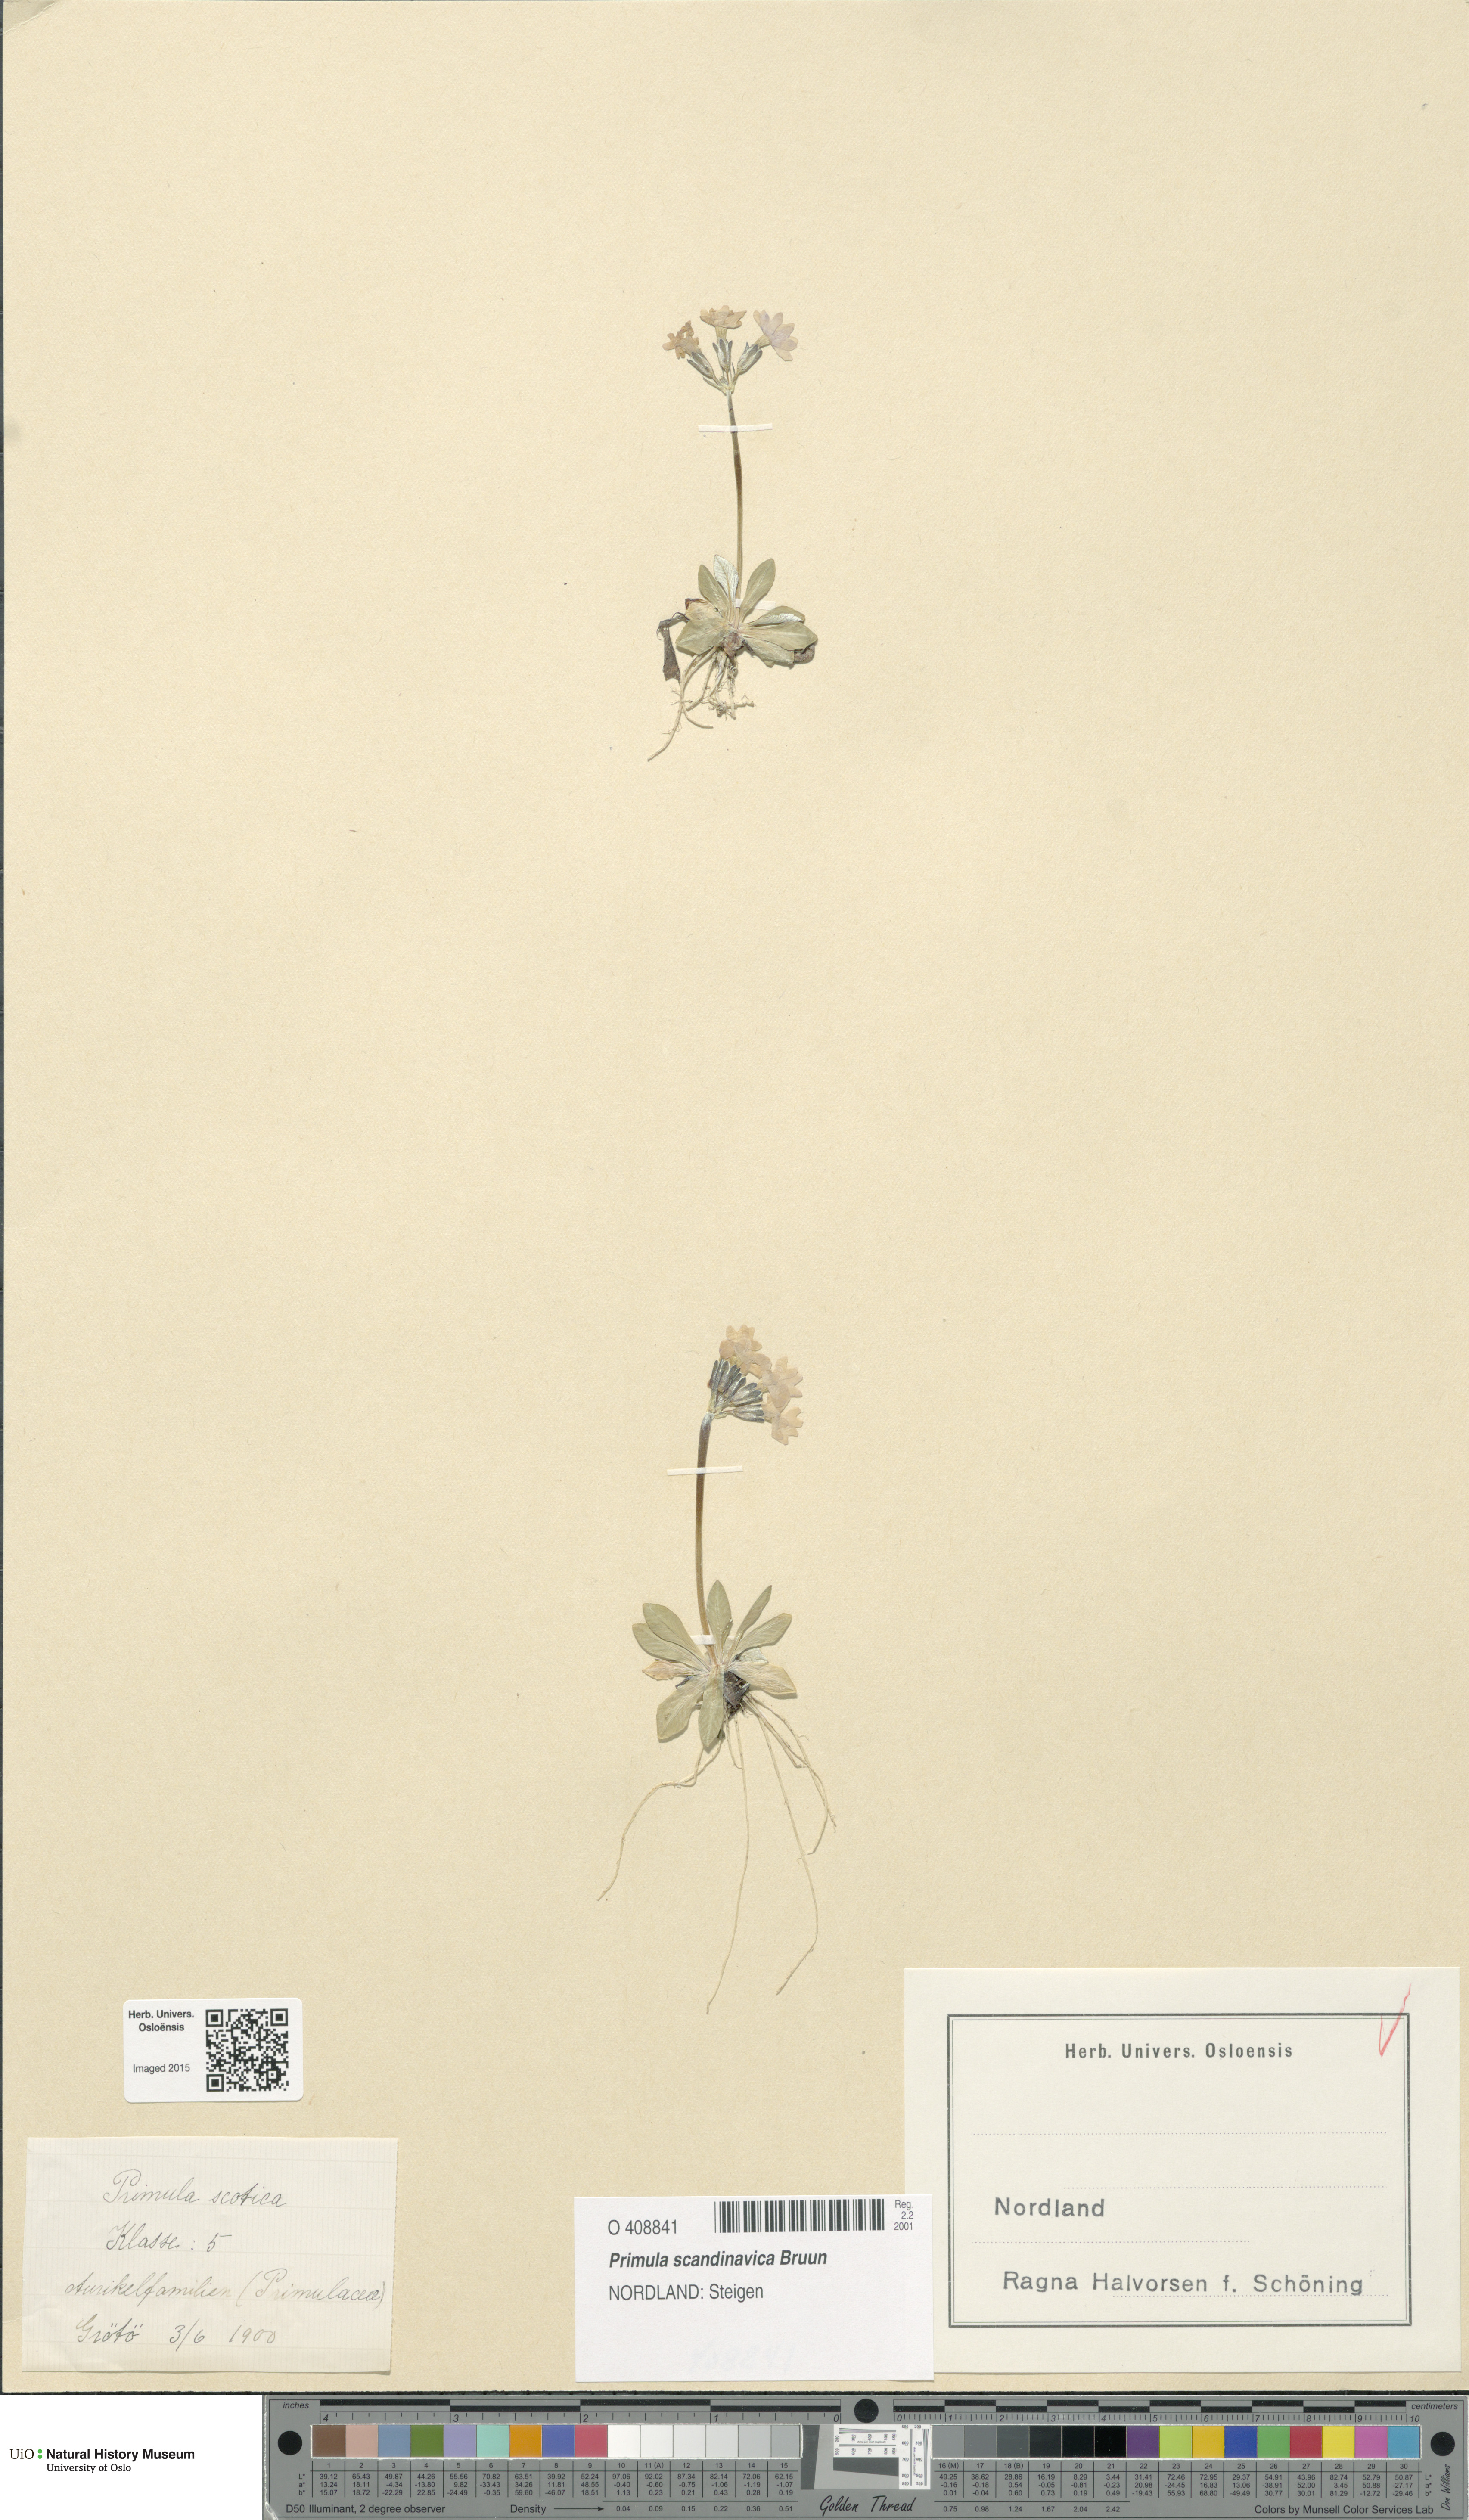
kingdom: Plantae
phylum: Tracheophyta
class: Magnoliopsida
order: Ericales
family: Primulaceae
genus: Primula
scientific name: Primula scandinavica
